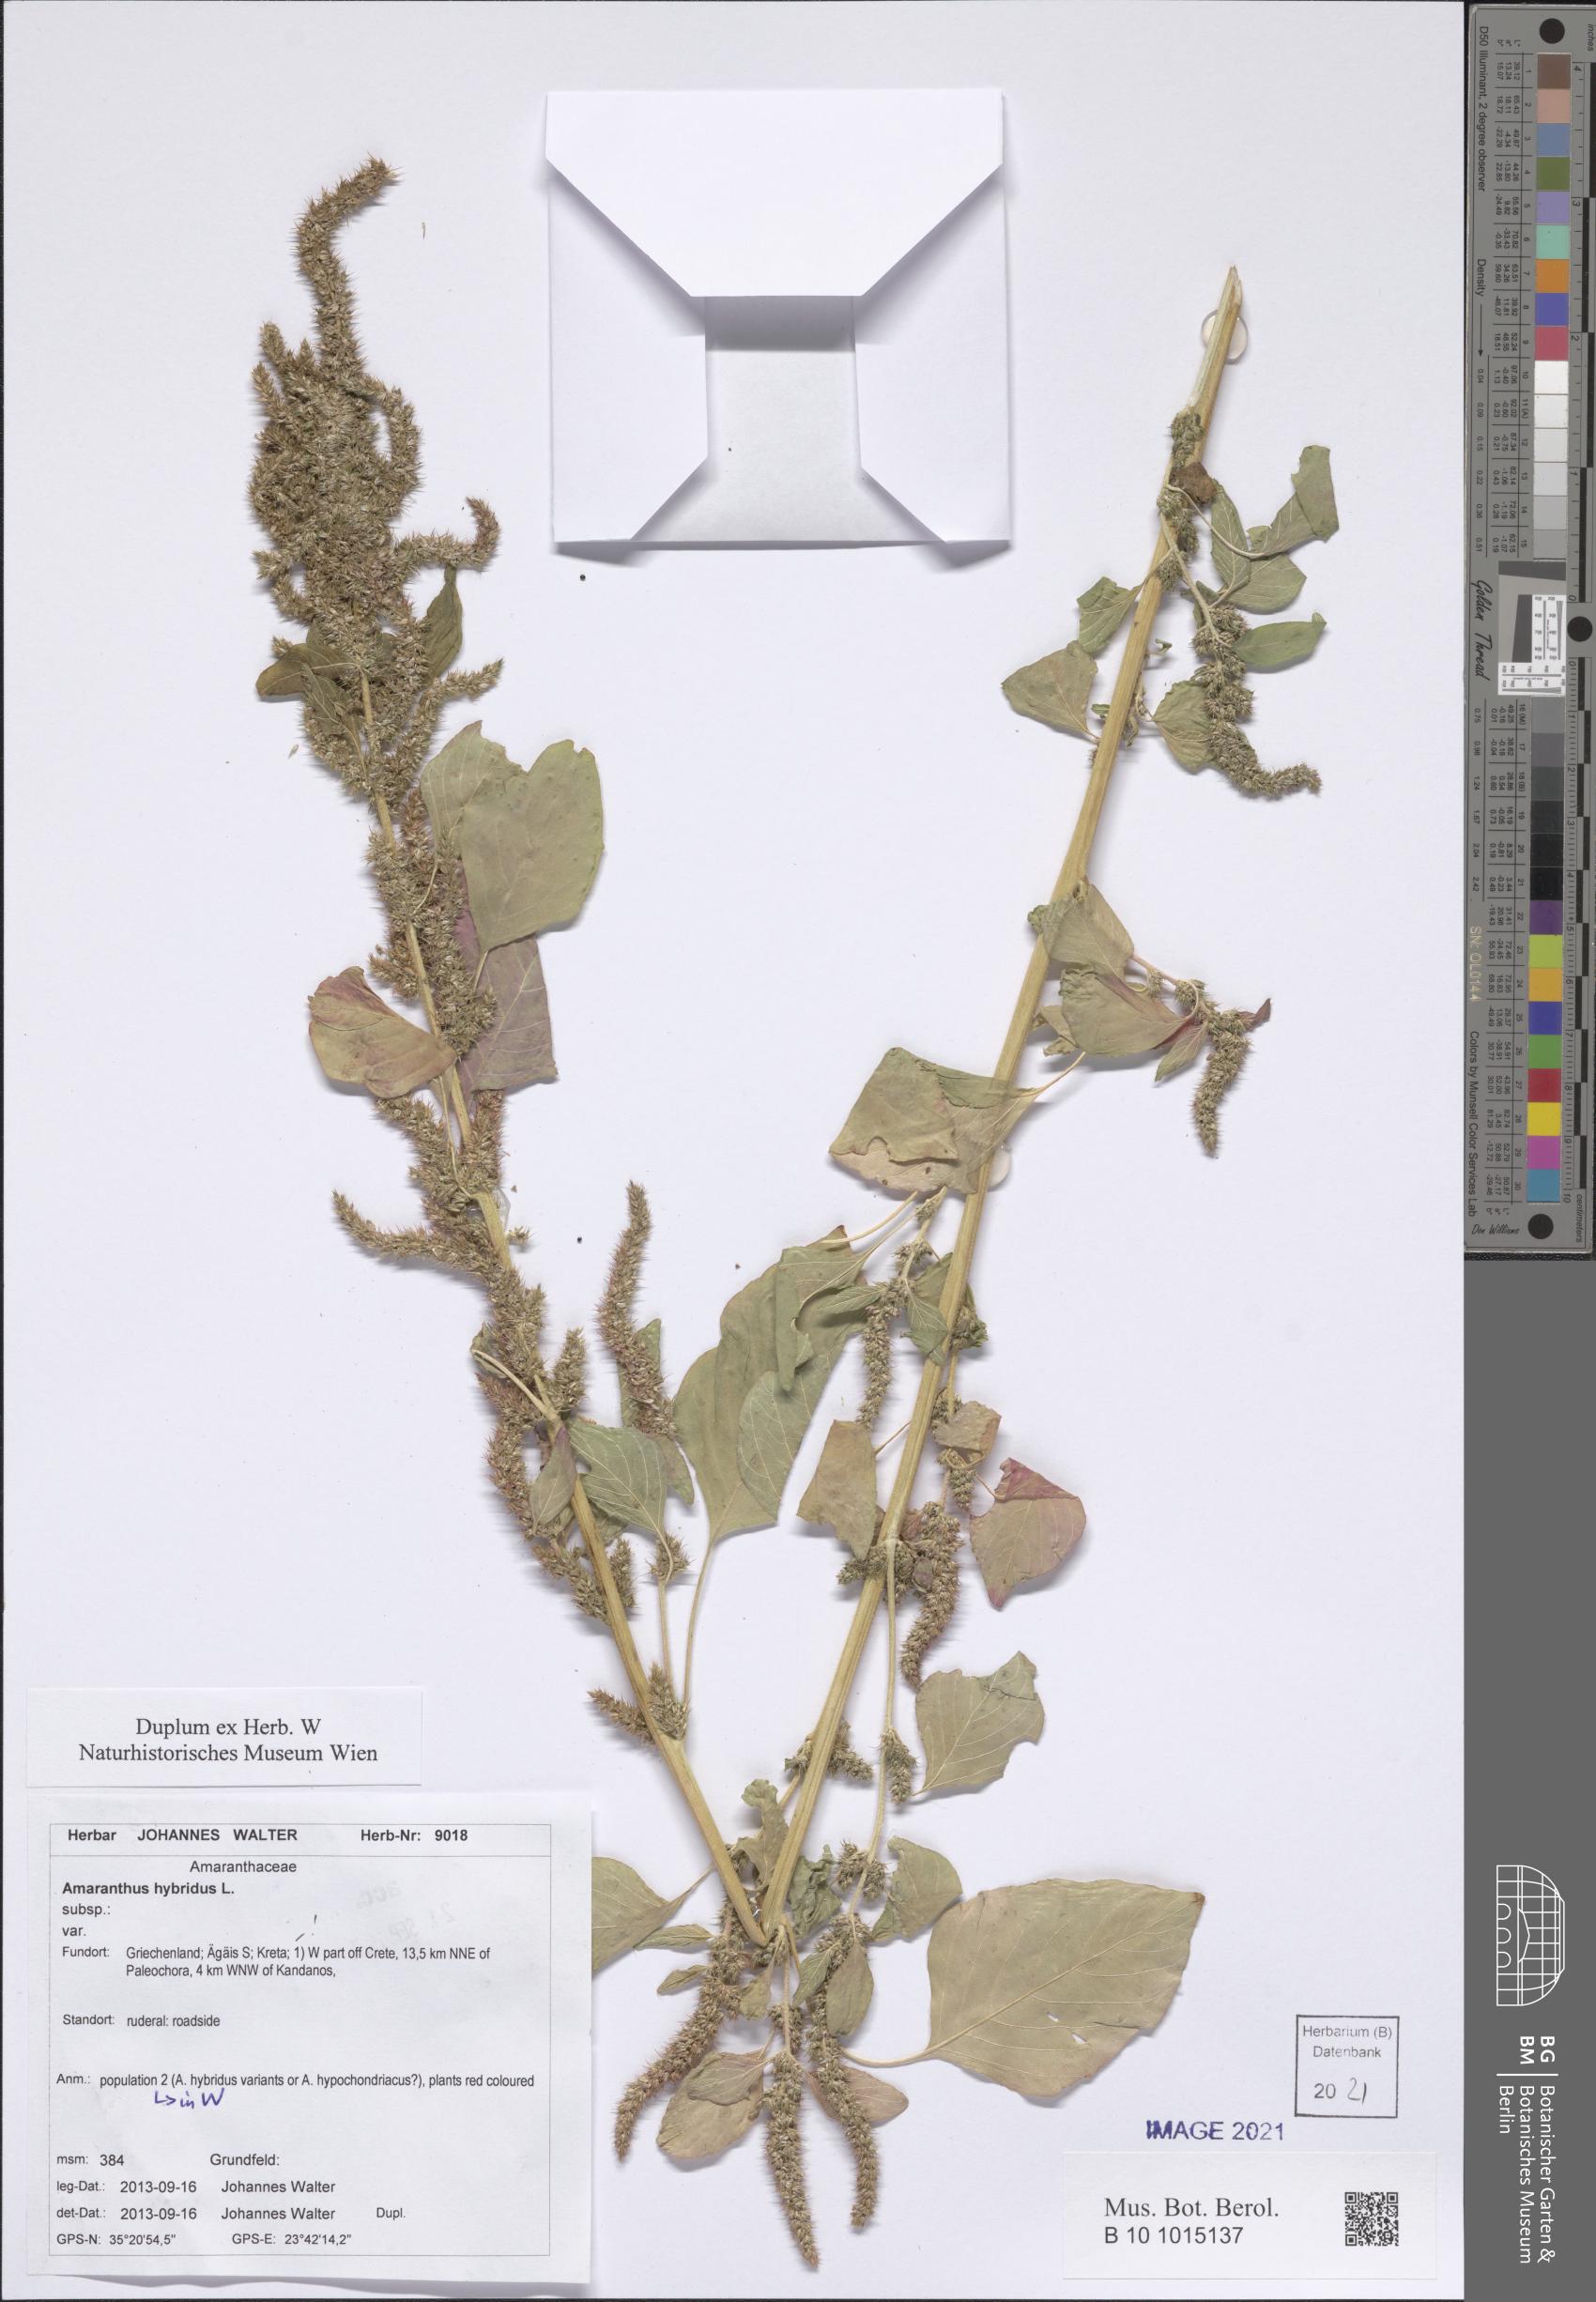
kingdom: Plantae
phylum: Tracheophyta
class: Magnoliopsida
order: Caryophyllales
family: Amaranthaceae
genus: Amaranthus
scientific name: Amaranthus hybridus
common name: Green amaranth
